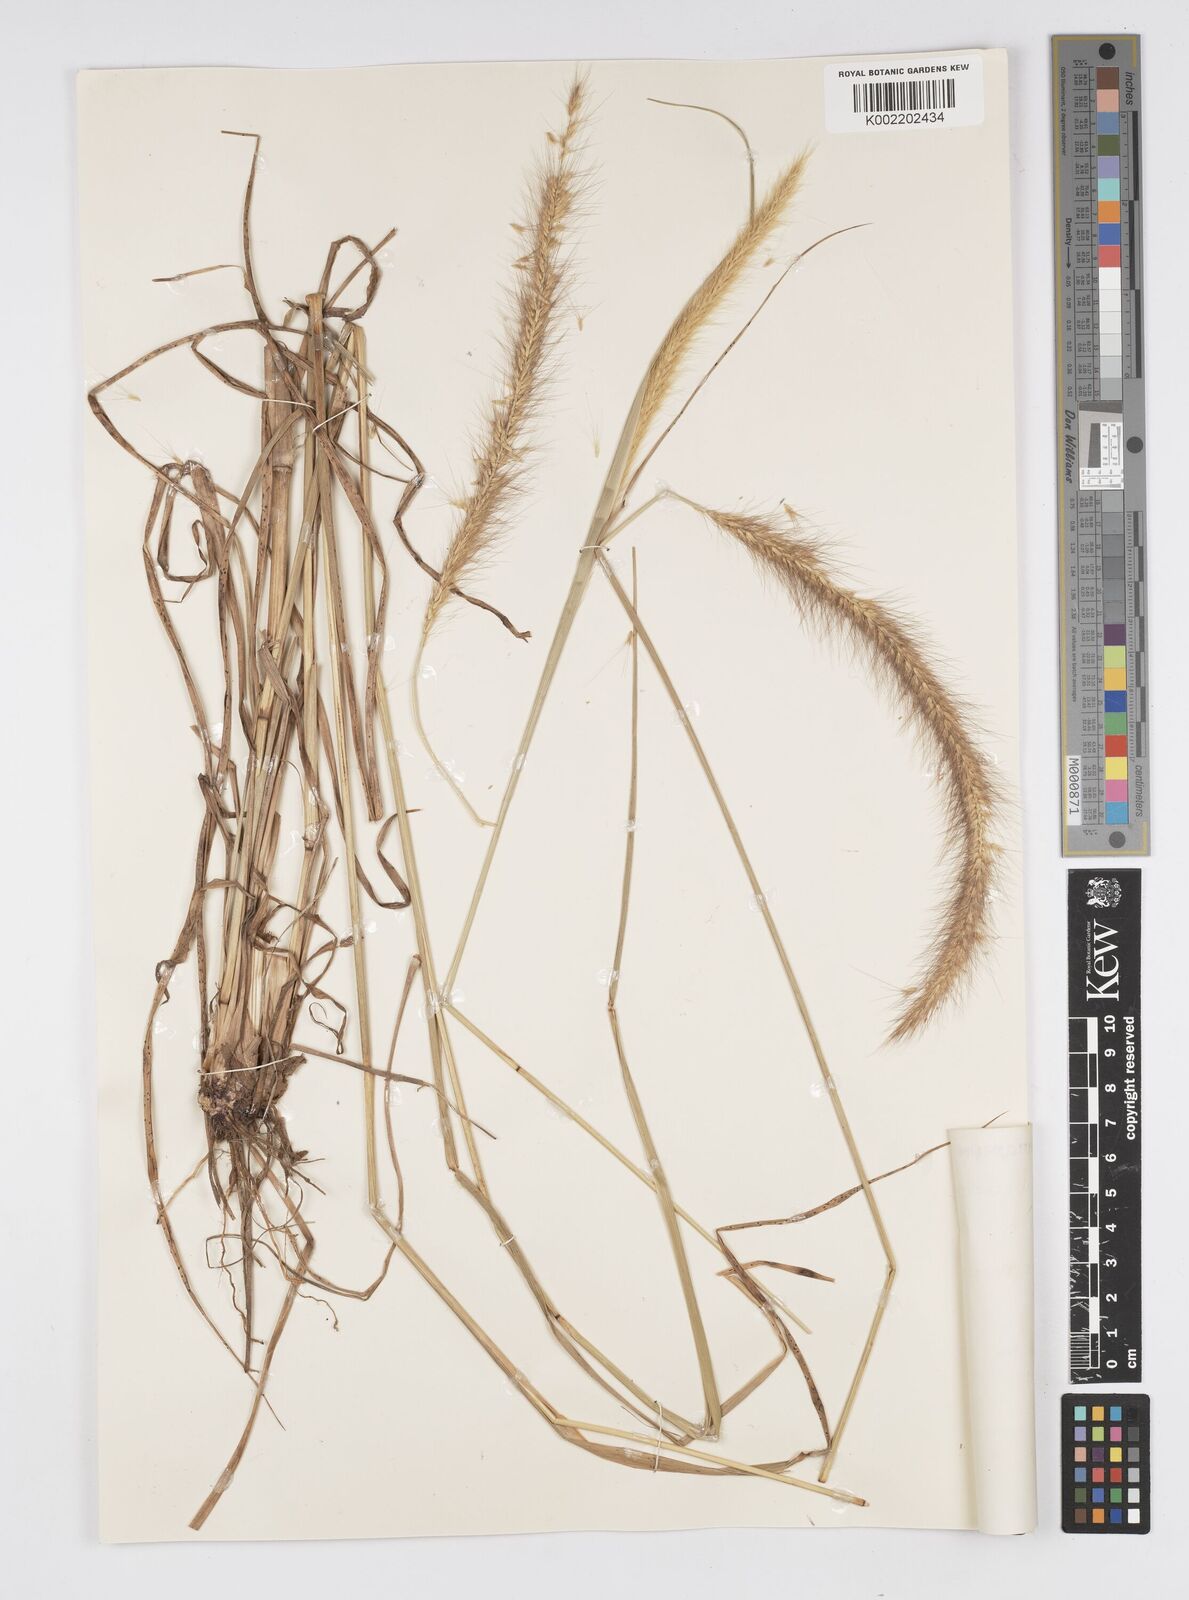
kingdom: Plantae
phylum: Tracheophyta
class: Liliopsida
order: Poales
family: Poaceae
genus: Setaria
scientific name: Setaria parviflora
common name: Knotroot bristle-grass
